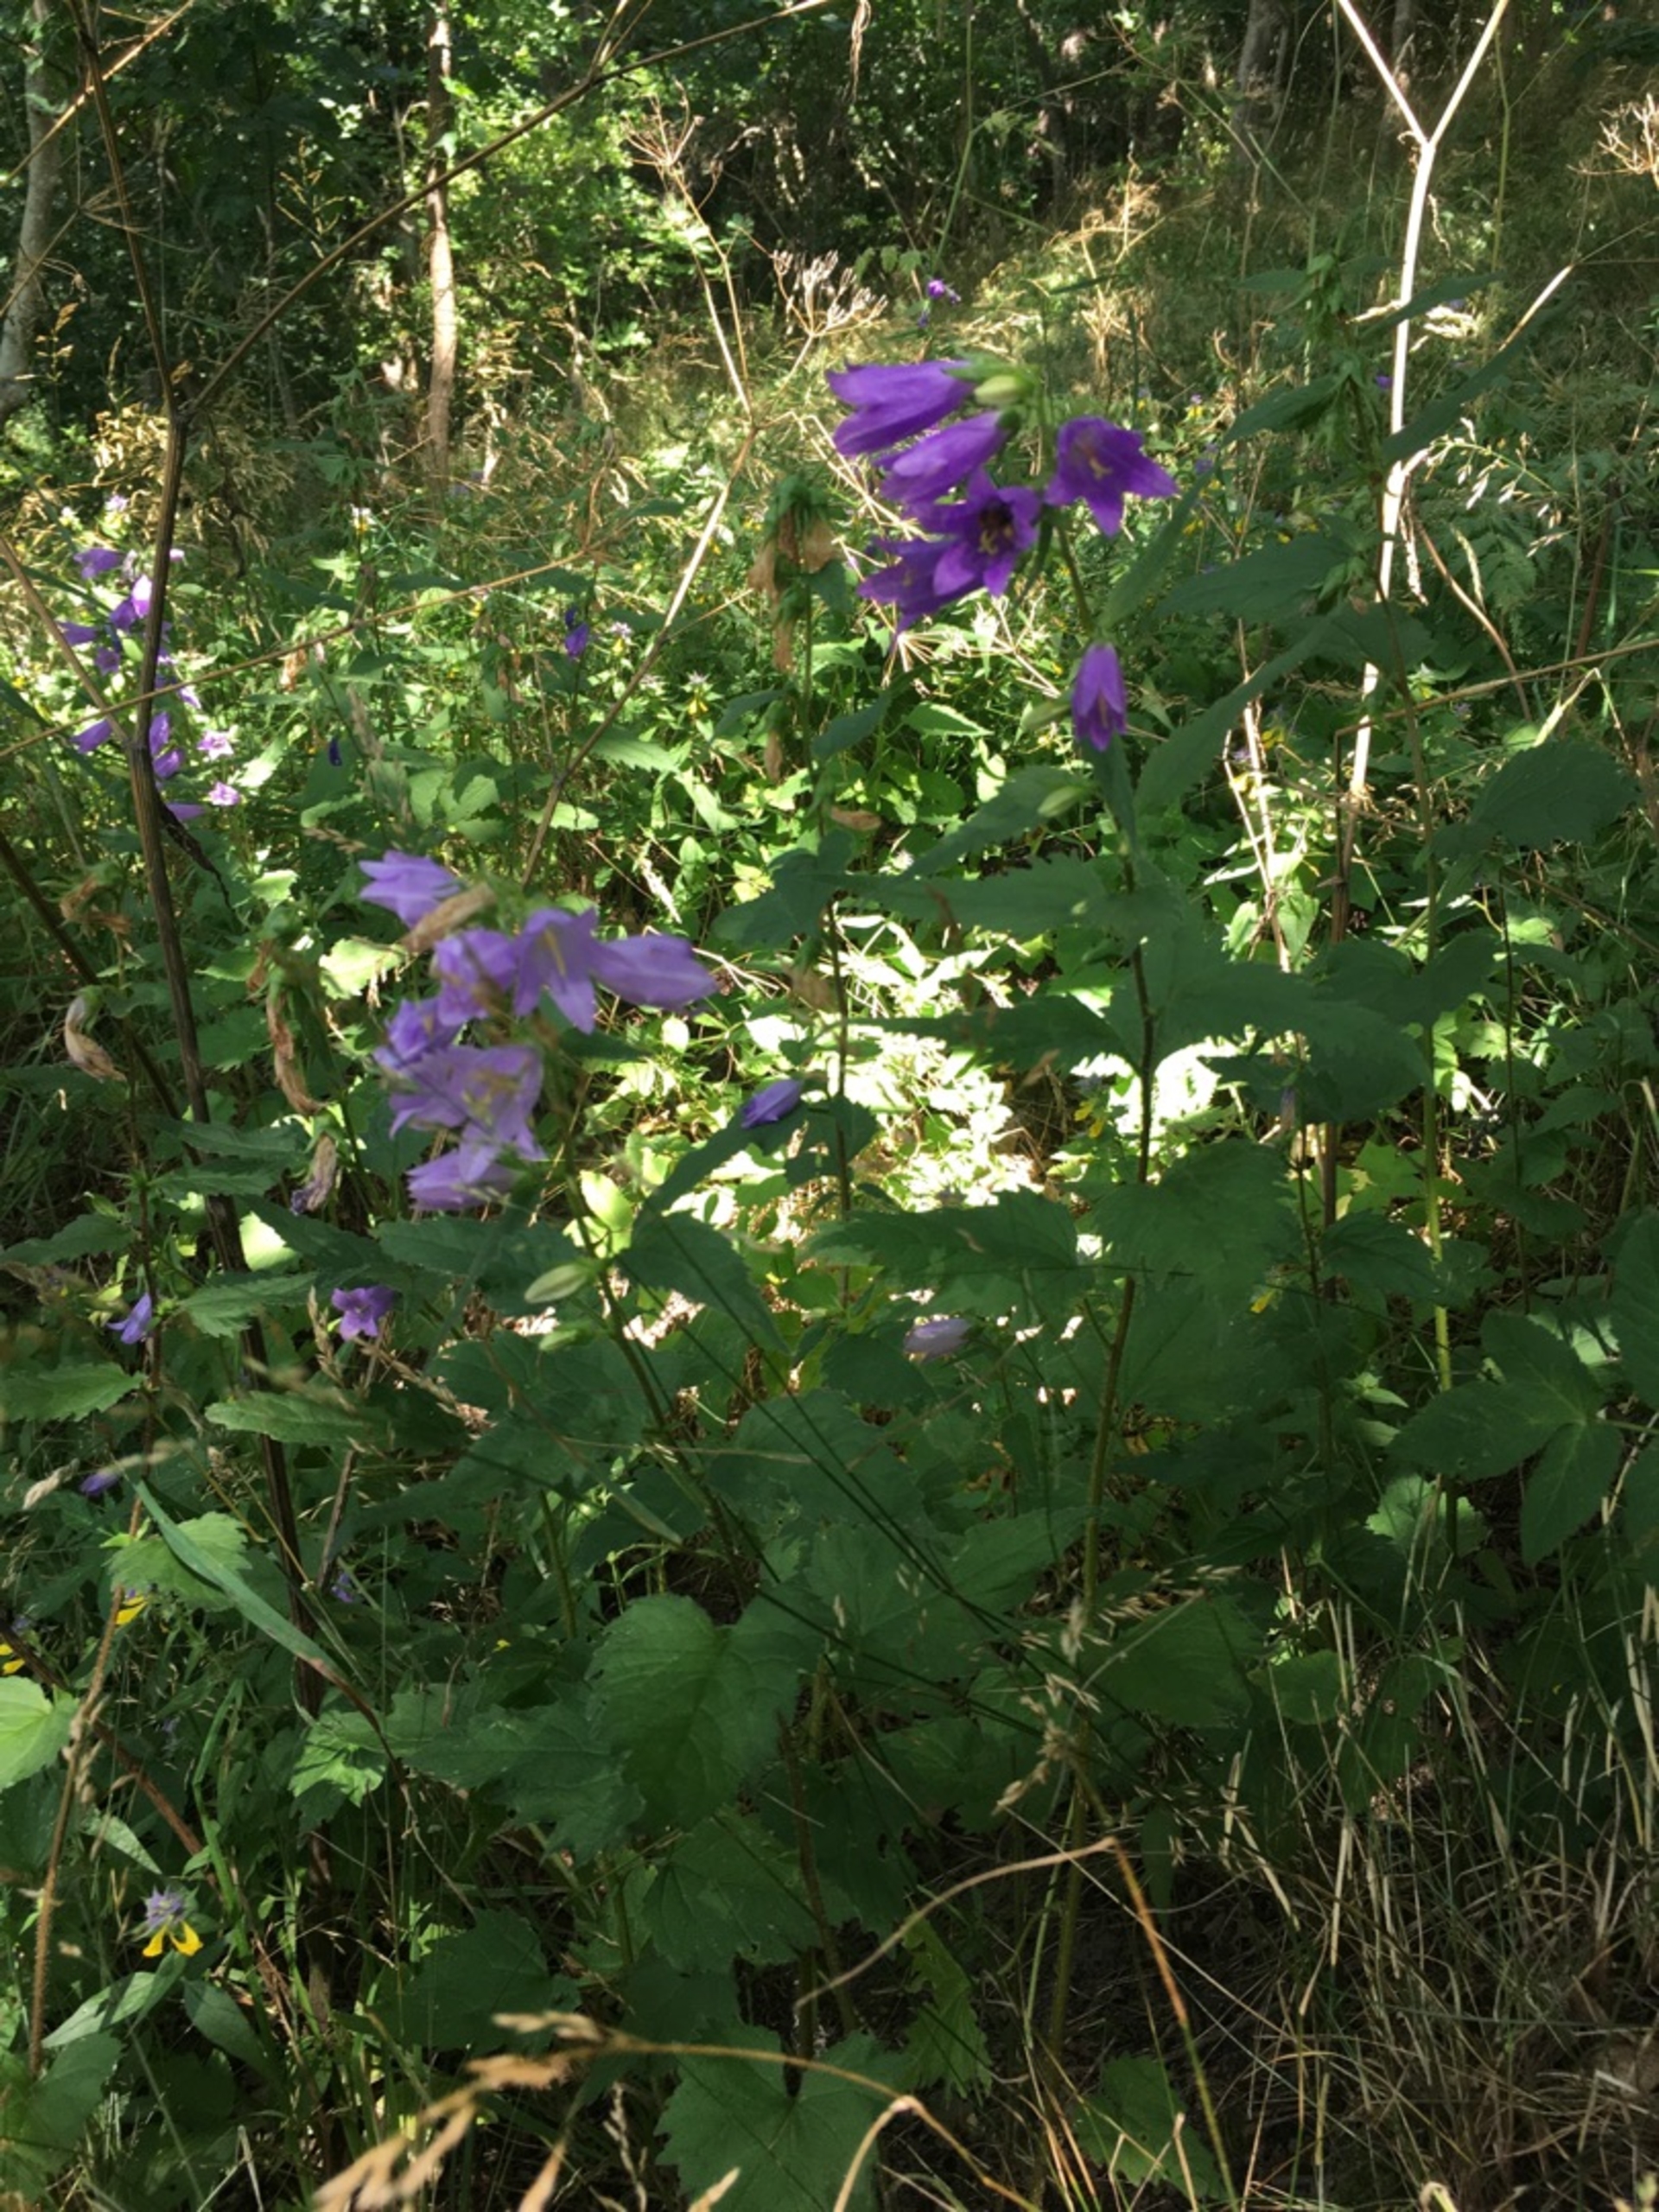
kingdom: Plantae
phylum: Tracheophyta
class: Magnoliopsida
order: Asterales
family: Campanulaceae
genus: Campanula
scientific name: Campanula trachelium
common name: Nælde-klokke
